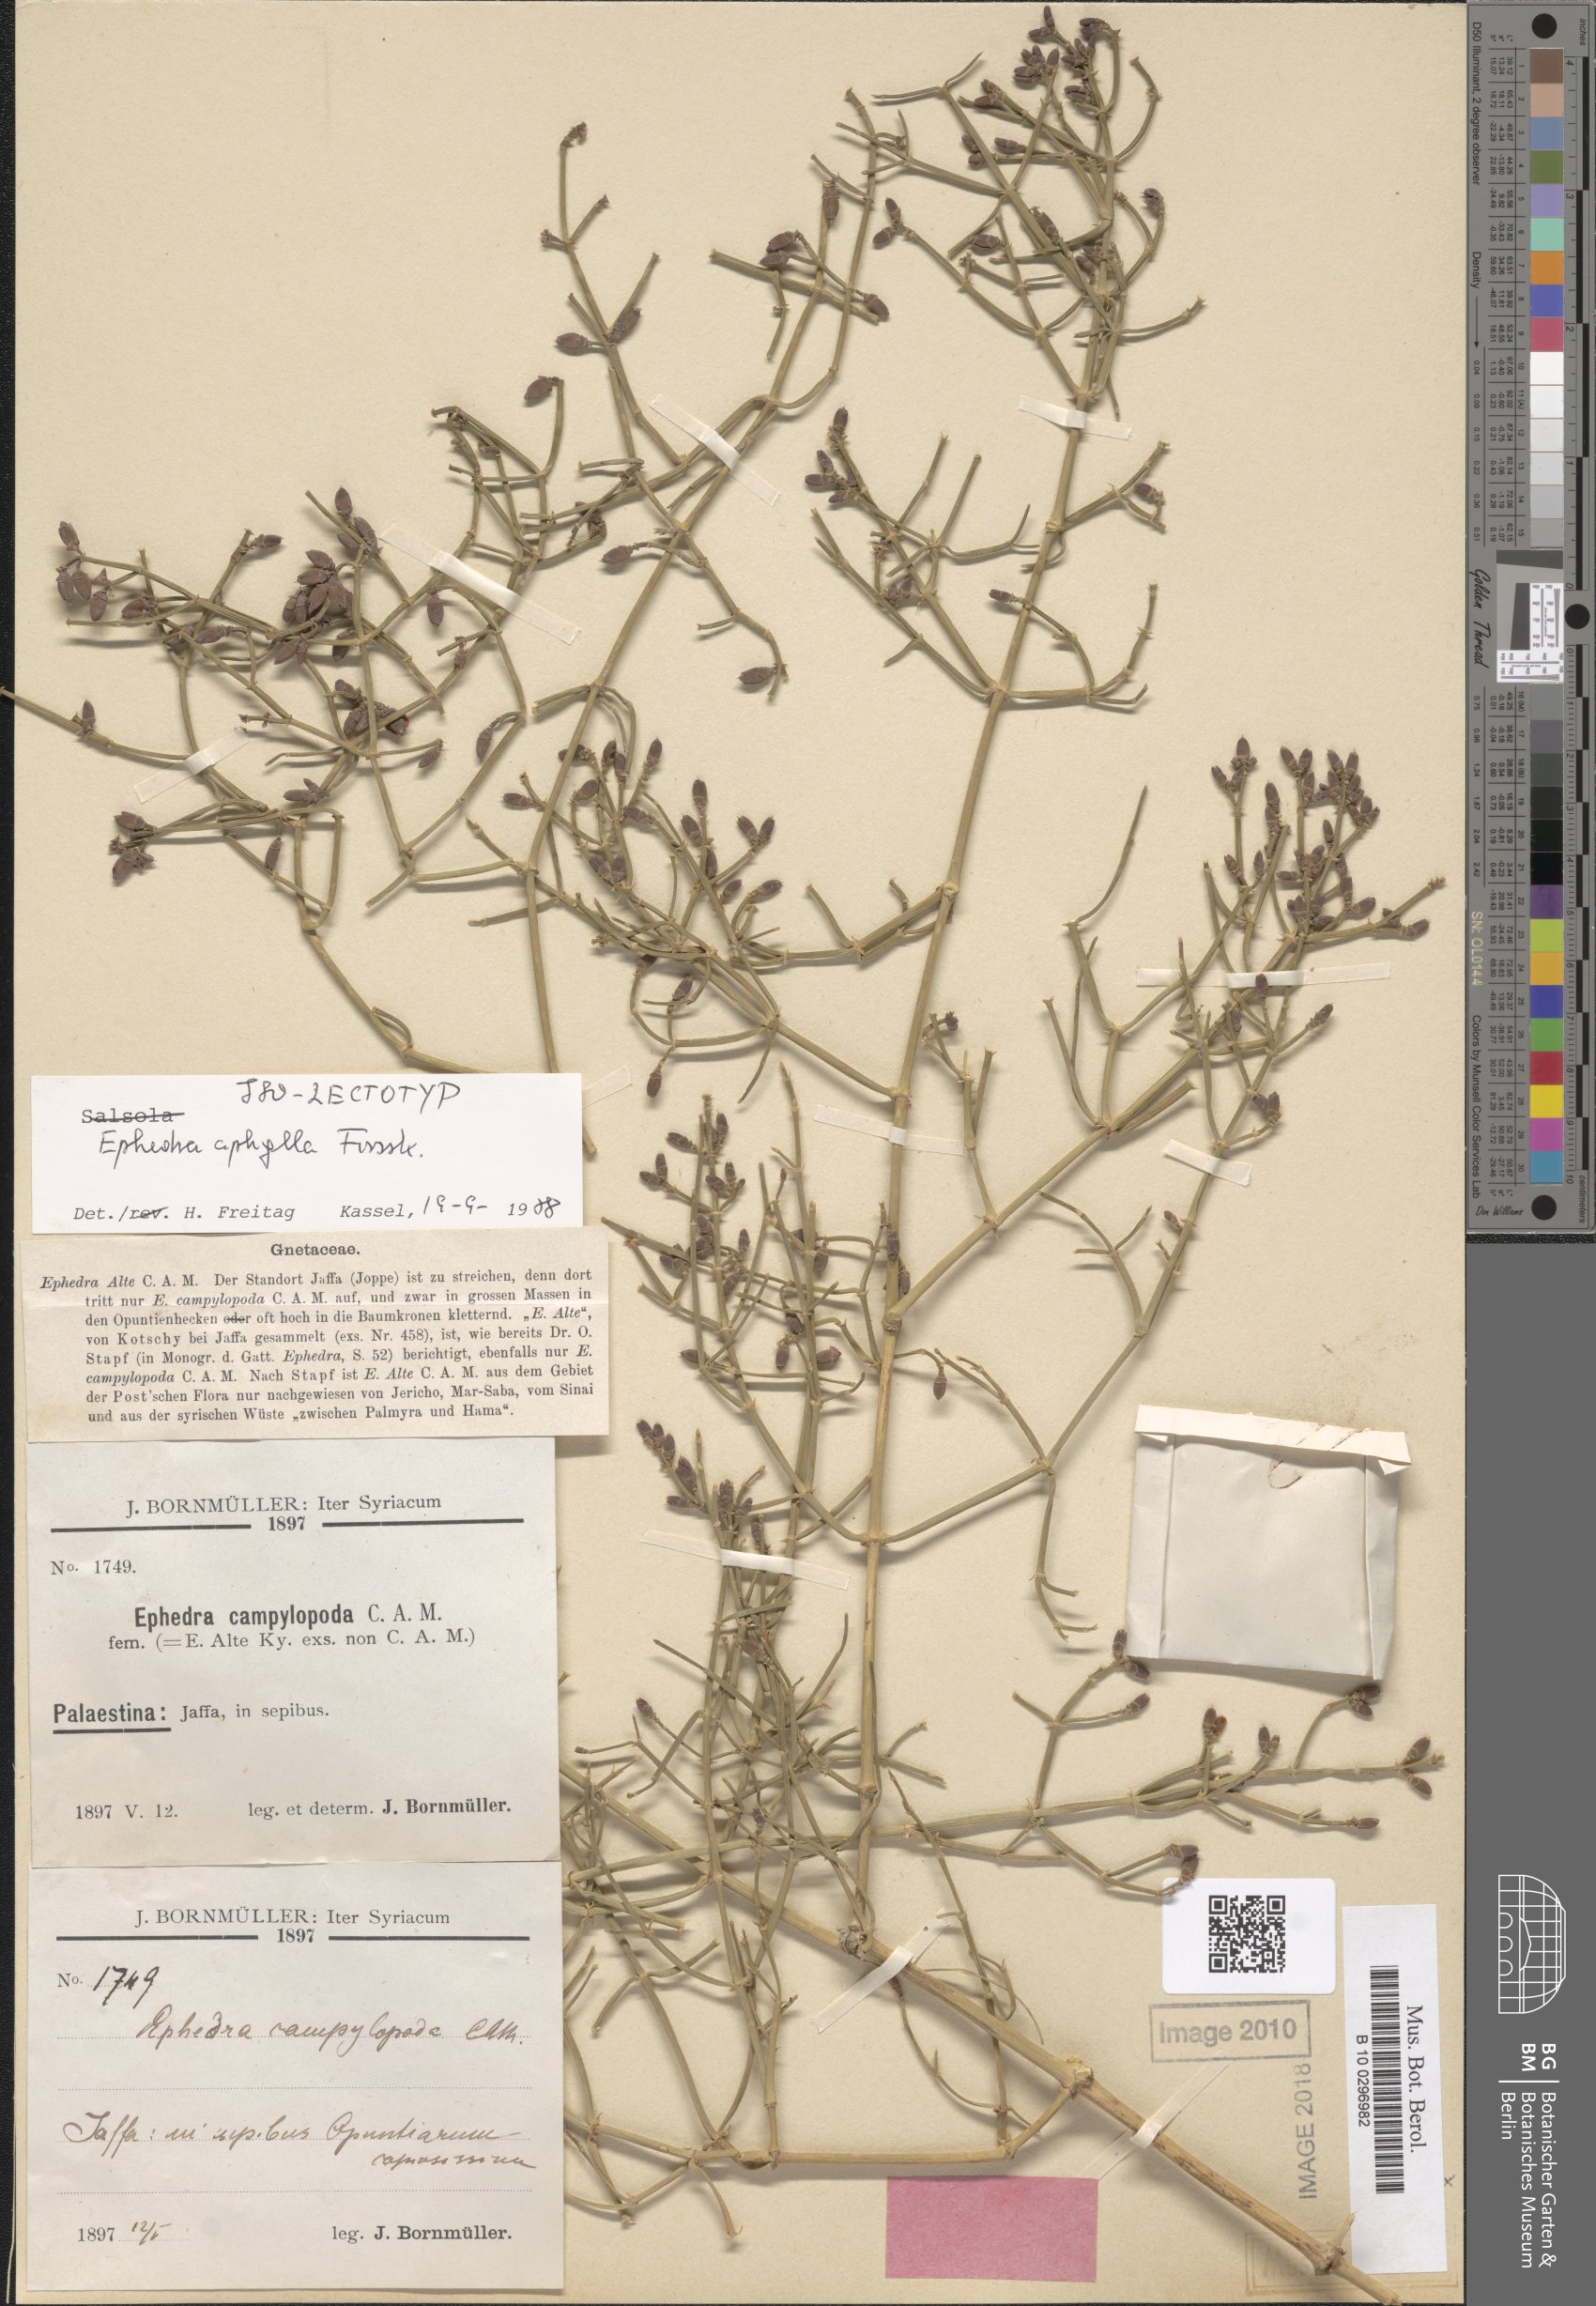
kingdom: Plantae
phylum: Tracheophyta
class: Gnetopsida
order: Ephedrales
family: Ephedraceae
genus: Ephedra
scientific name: Ephedra aphylla
